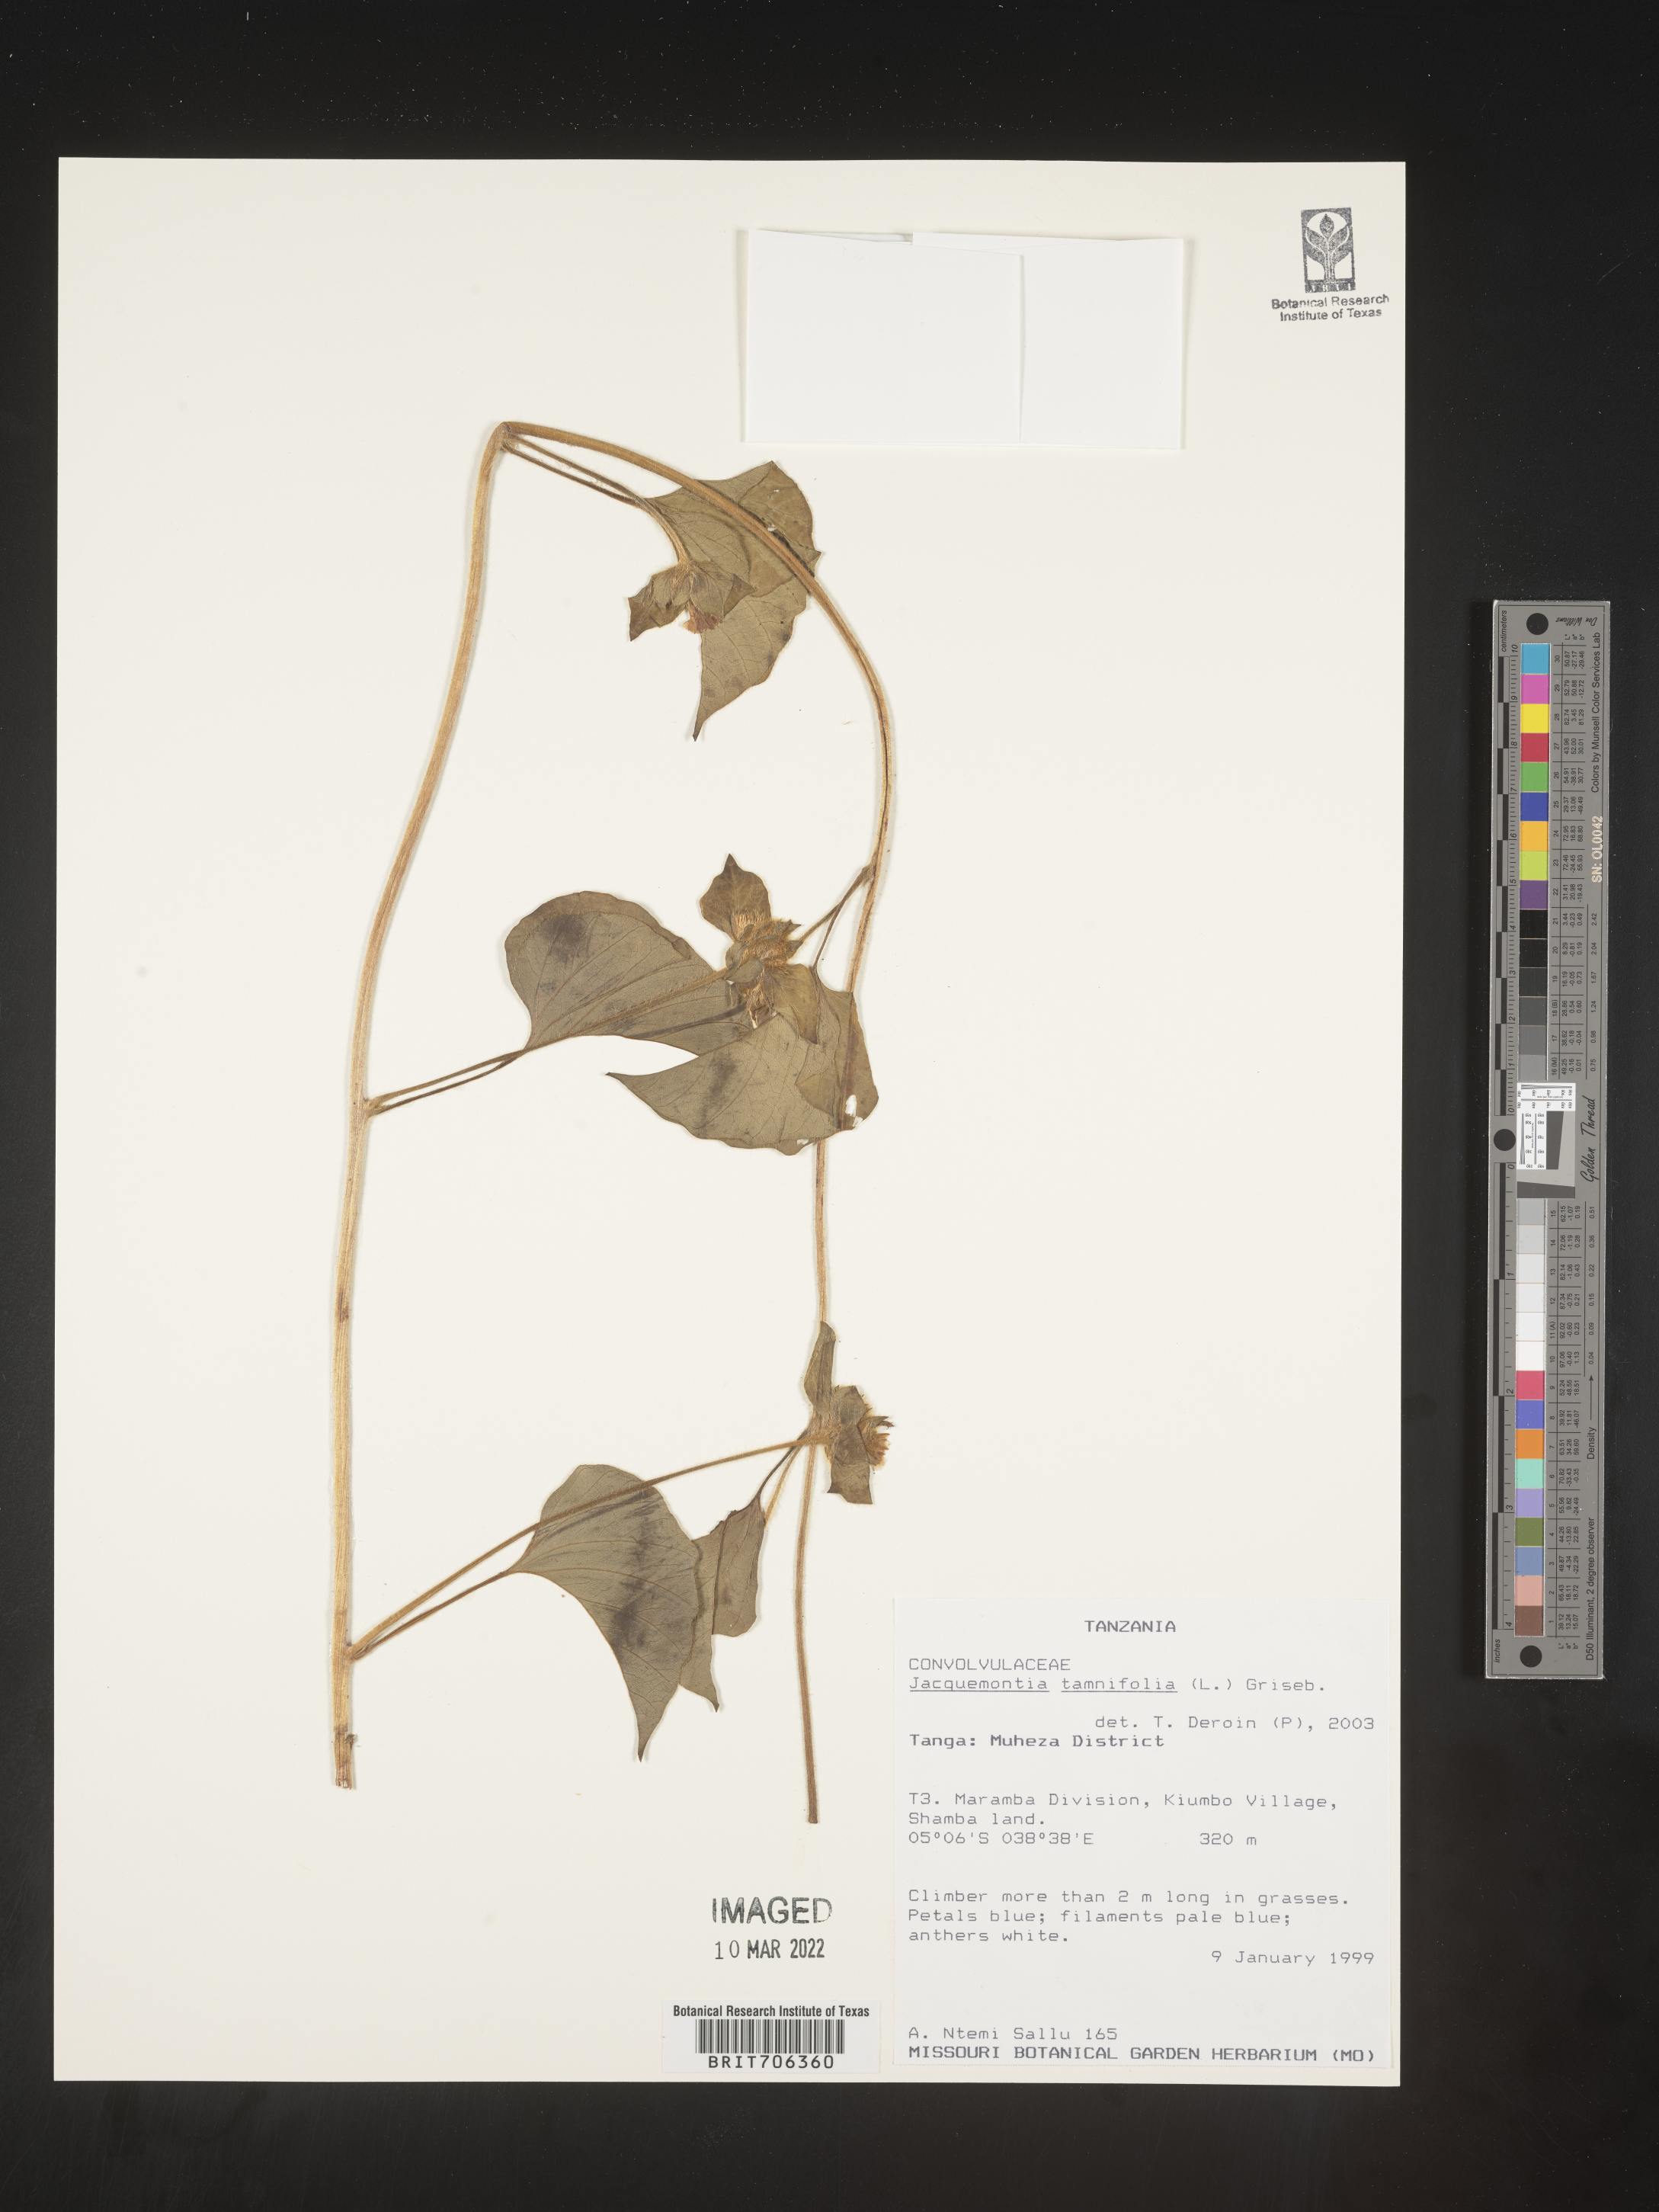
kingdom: Plantae
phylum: Tracheophyta
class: Magnoliopsida
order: Solanales
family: Convolvulaceae
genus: Jacquemontia
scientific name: Jacquemontia
